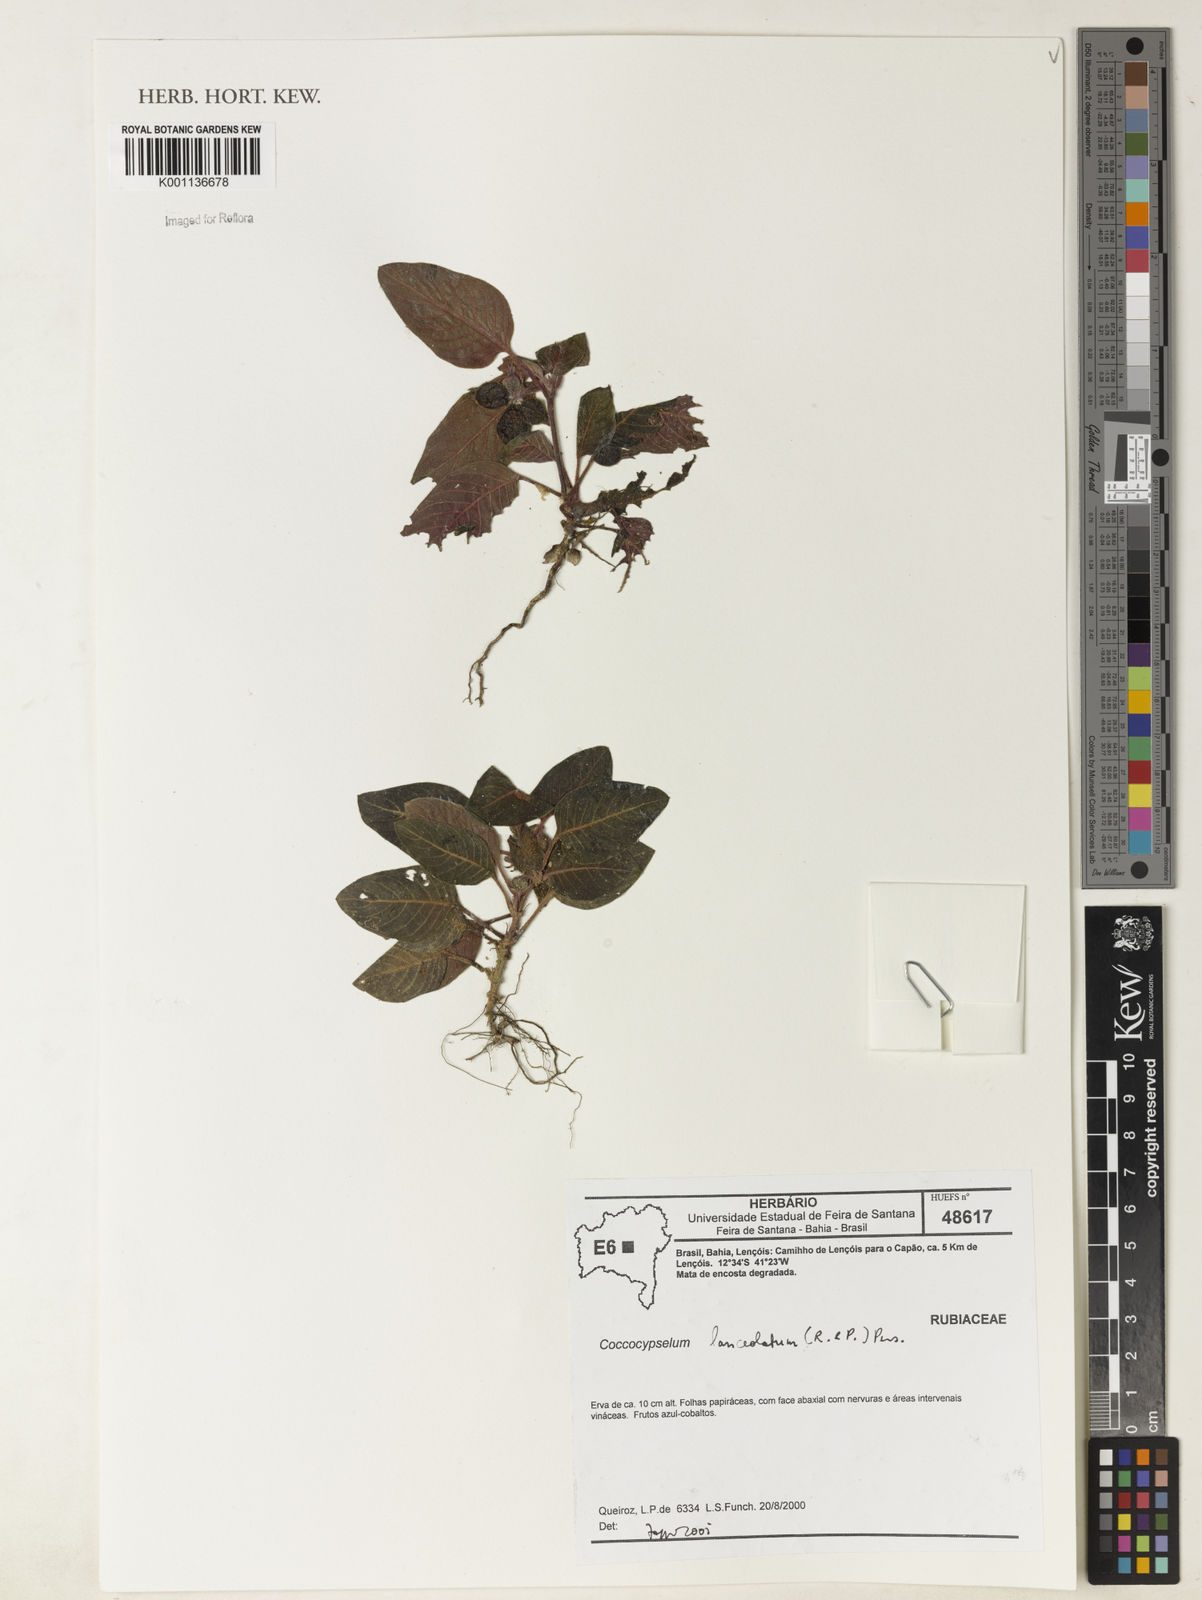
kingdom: Plantae
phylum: Tracheophyta
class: Magnoliopsida
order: Gentianales
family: Rubiaceae
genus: Coccocypselum
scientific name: Coccocypselum lanceolatum
